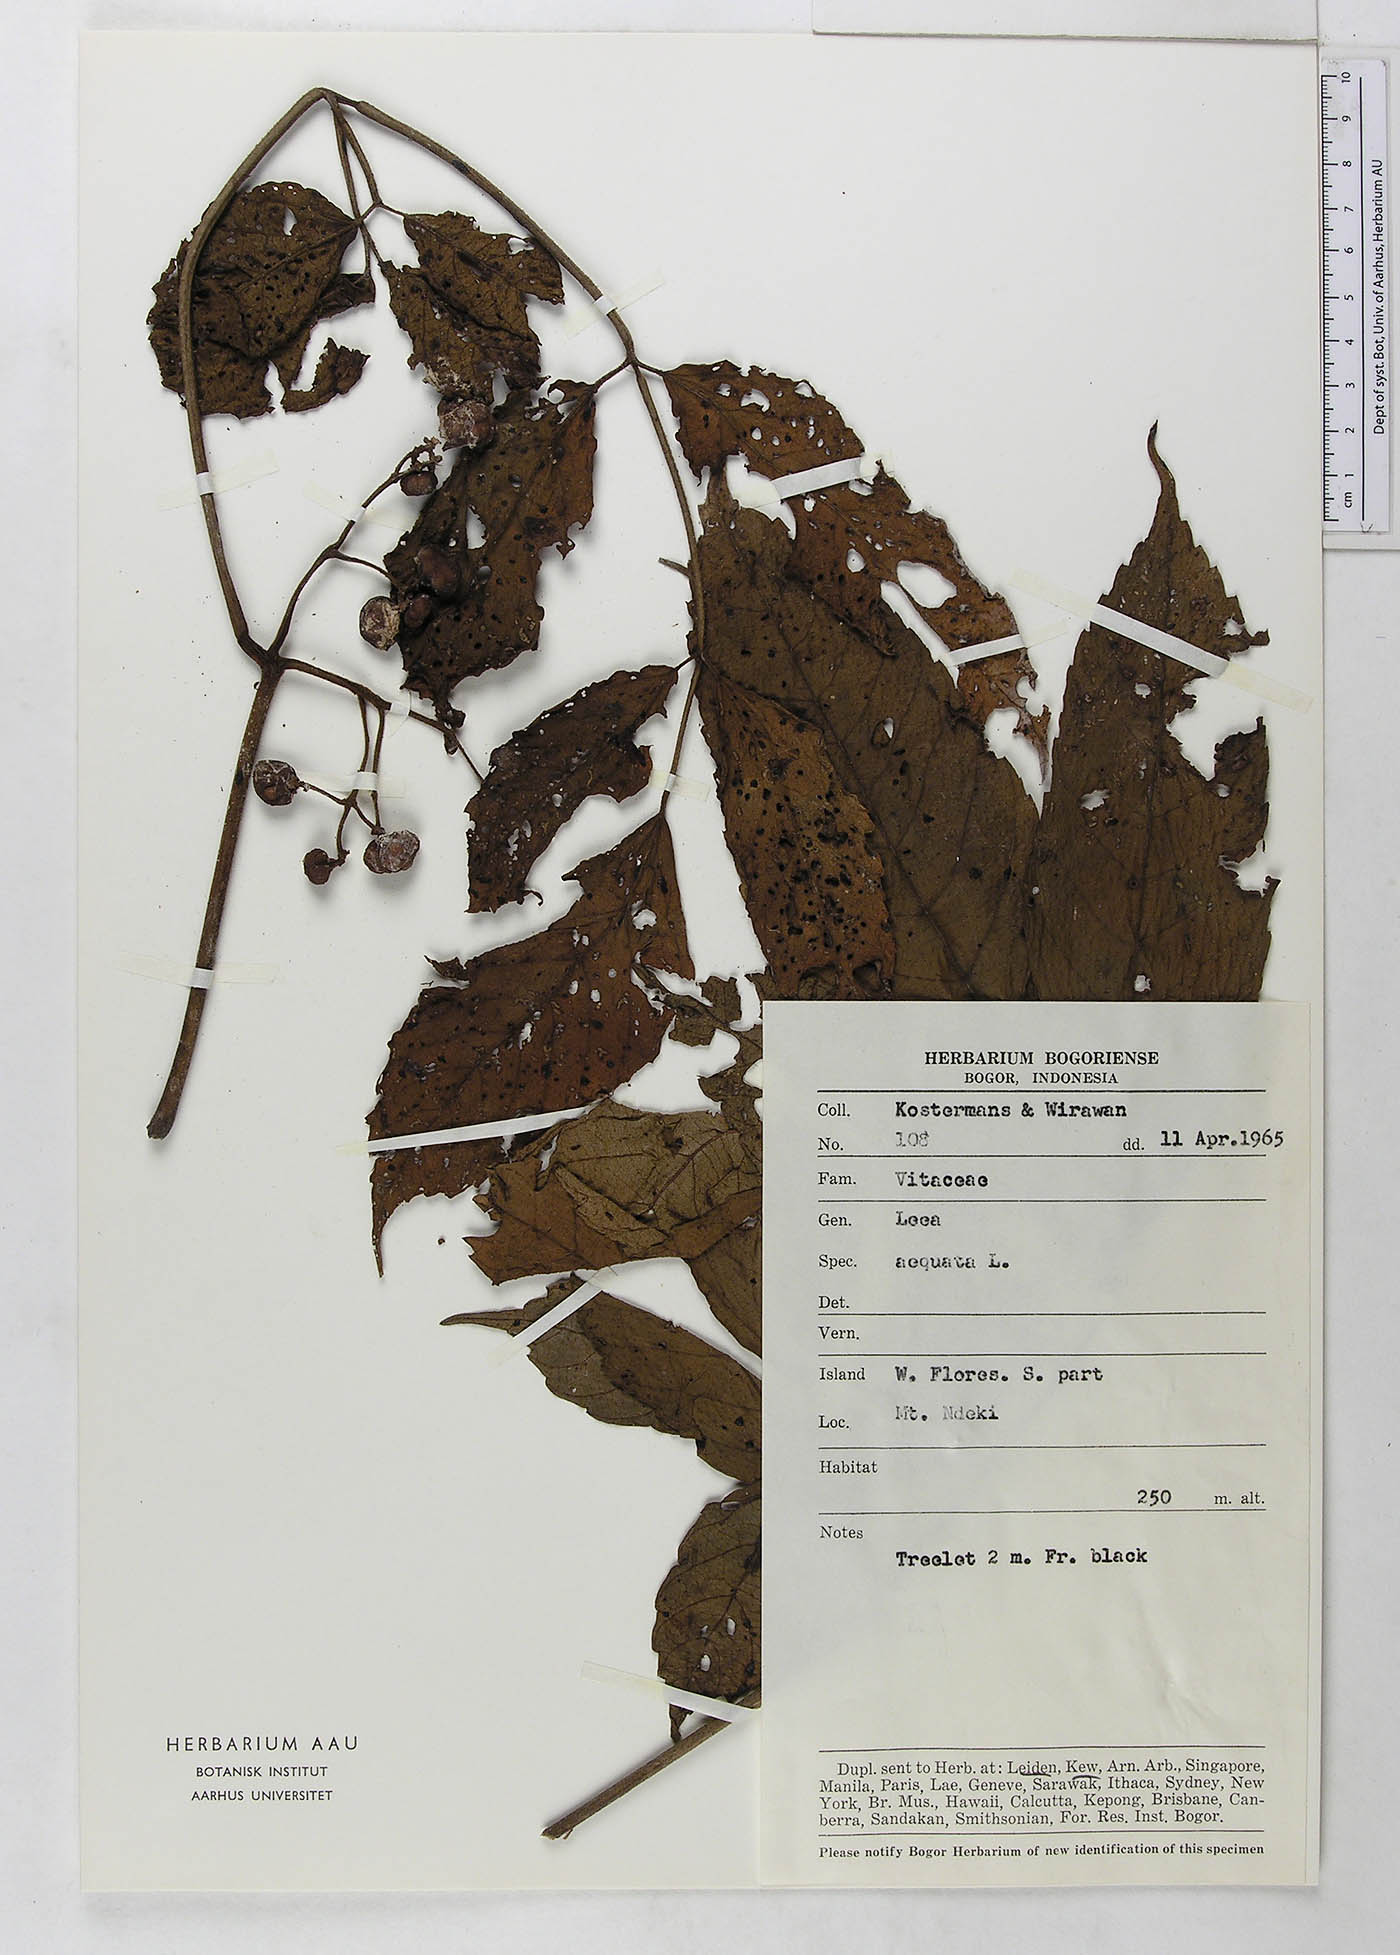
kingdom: Plantae
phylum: Tracheophyta
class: Magnoliopsida
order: Vitales
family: Vitaceae
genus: Leea
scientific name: Leea aequata
